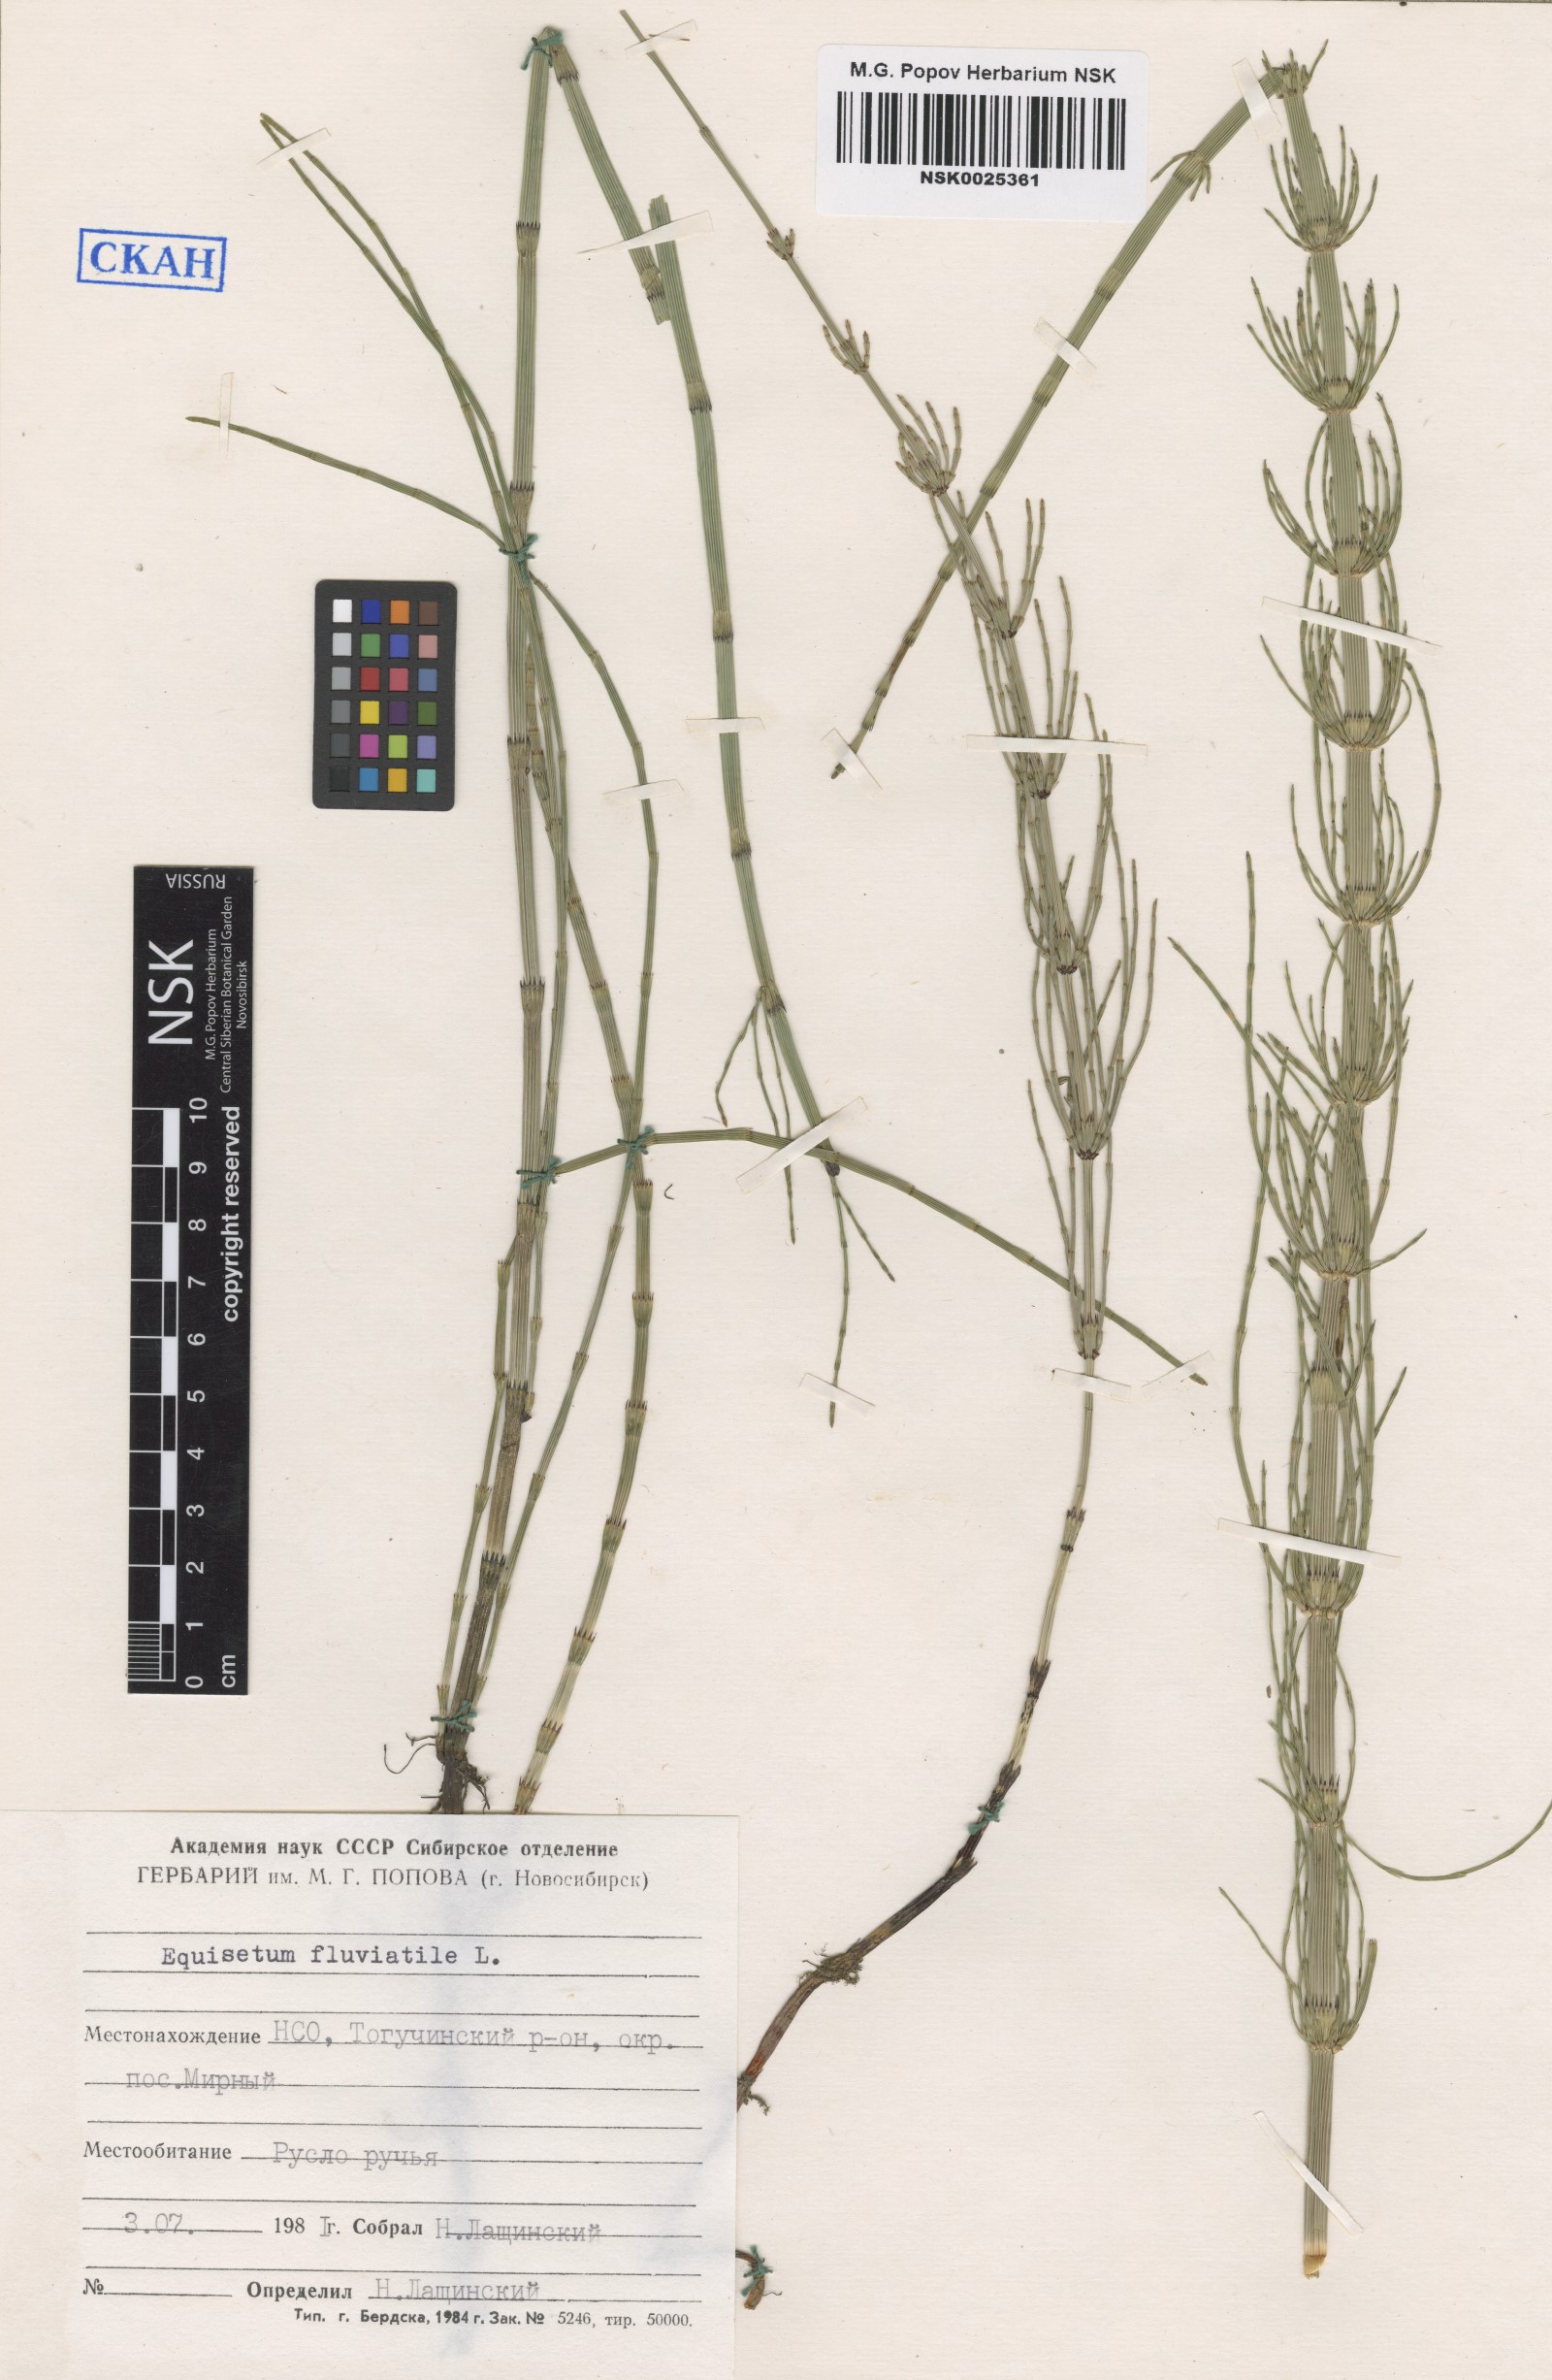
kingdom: Plantae
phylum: Tracheophyta
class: Polypodiopsida
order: Equisetales
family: Equisetaceae
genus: Equisetum
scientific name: Equisetum fluviatile
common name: Water horsetail
